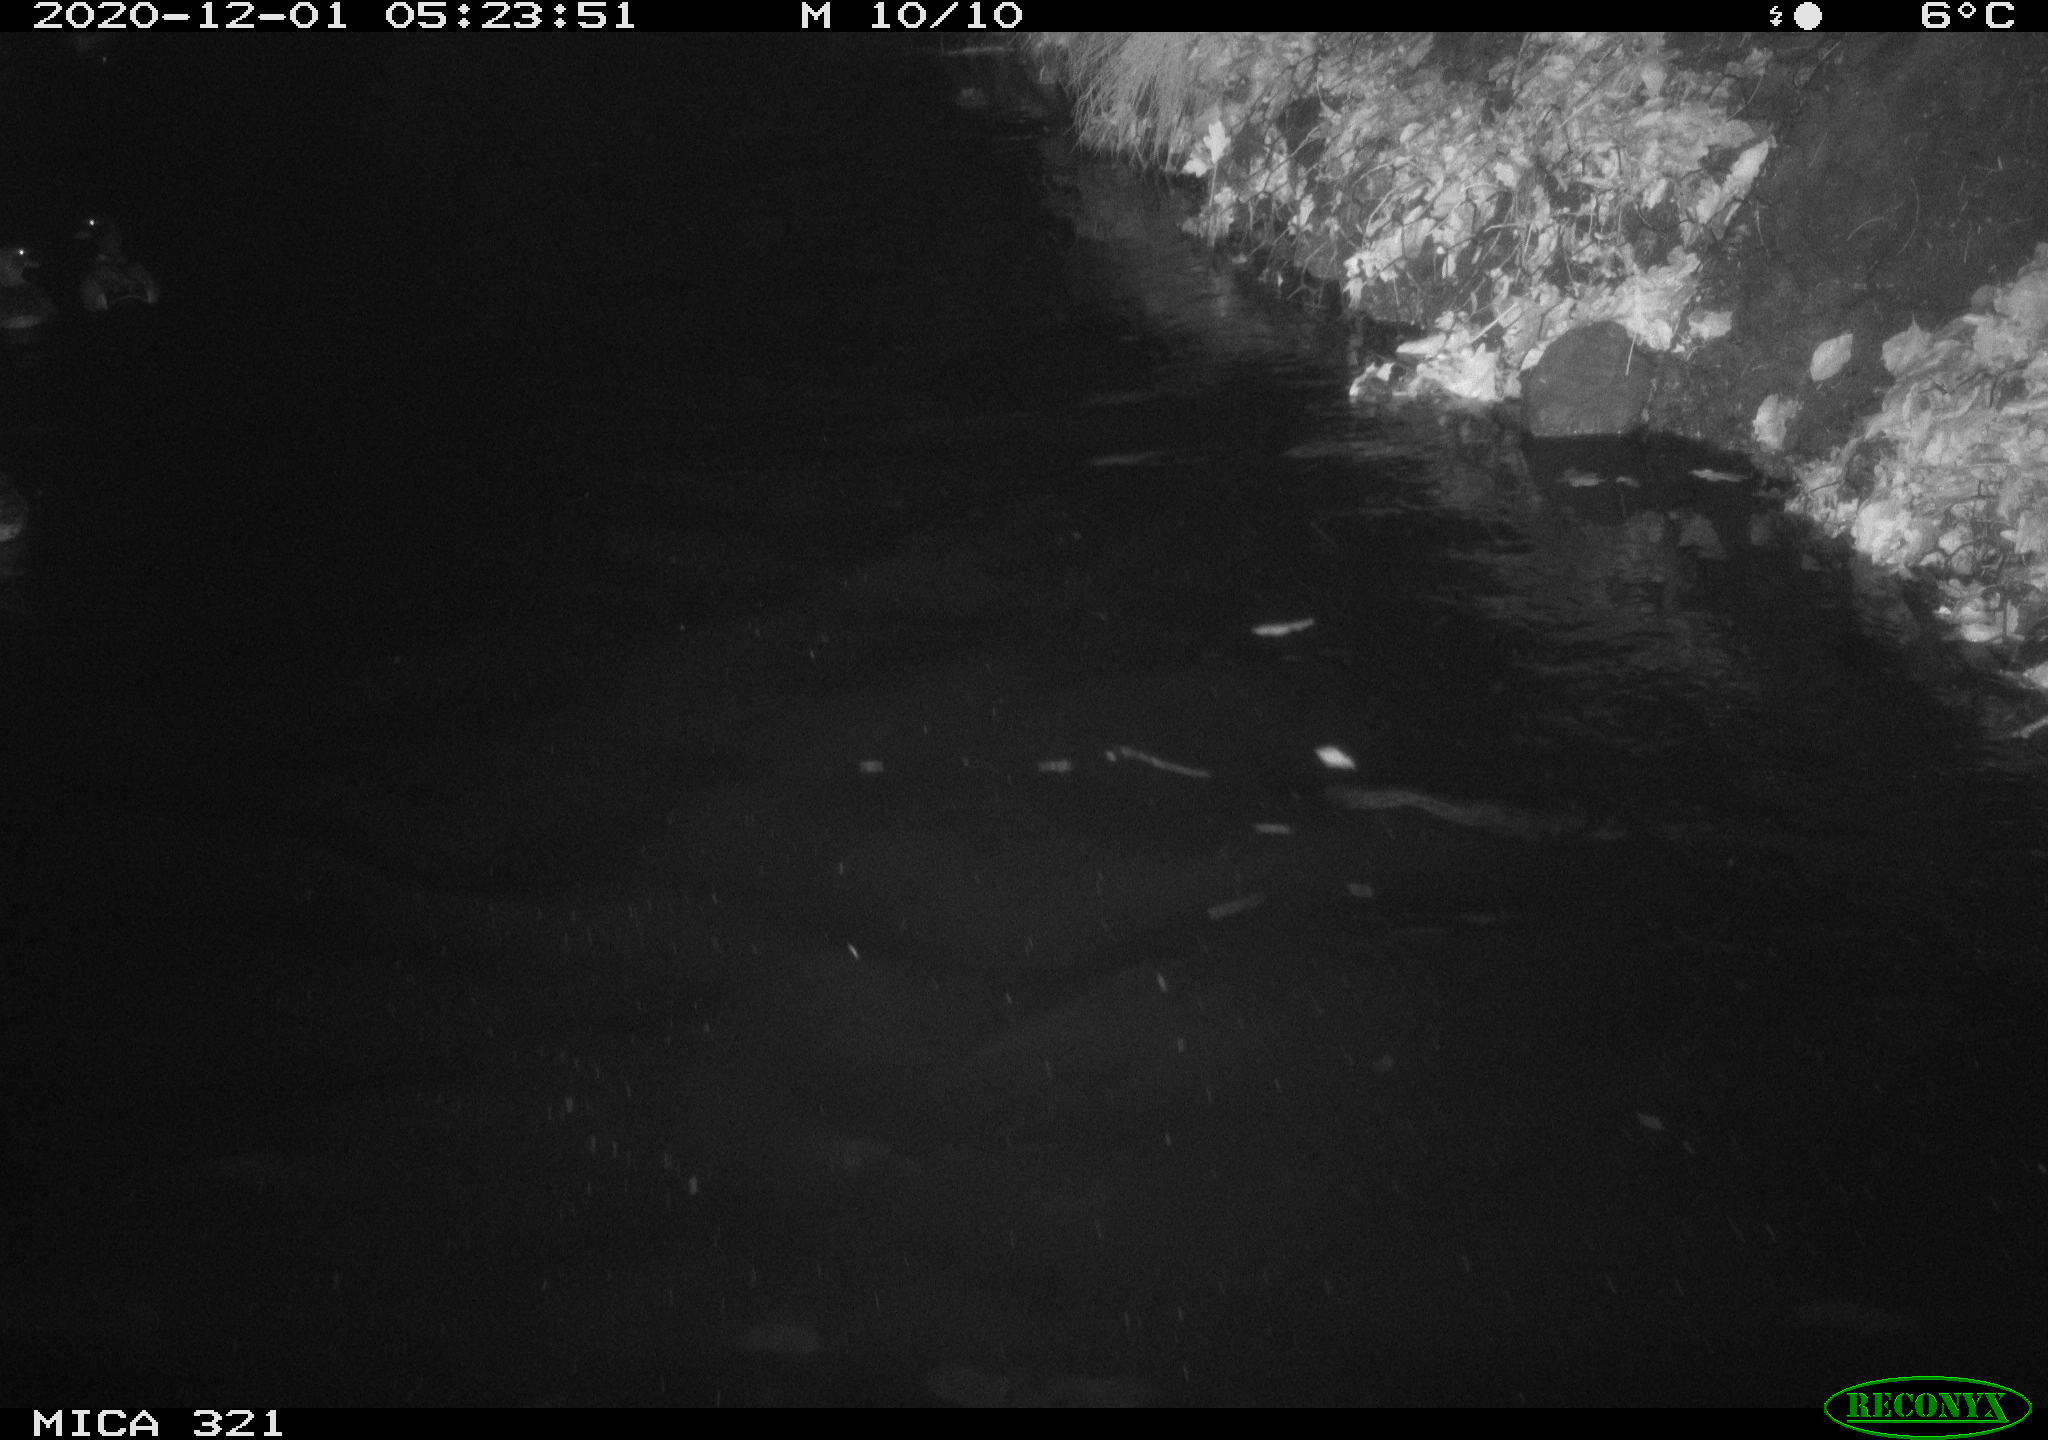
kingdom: Animalia
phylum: Chordata
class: Aves
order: Anseriformes
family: Anatidae
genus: Anas
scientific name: Anas platyrhynchos
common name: Mallard
